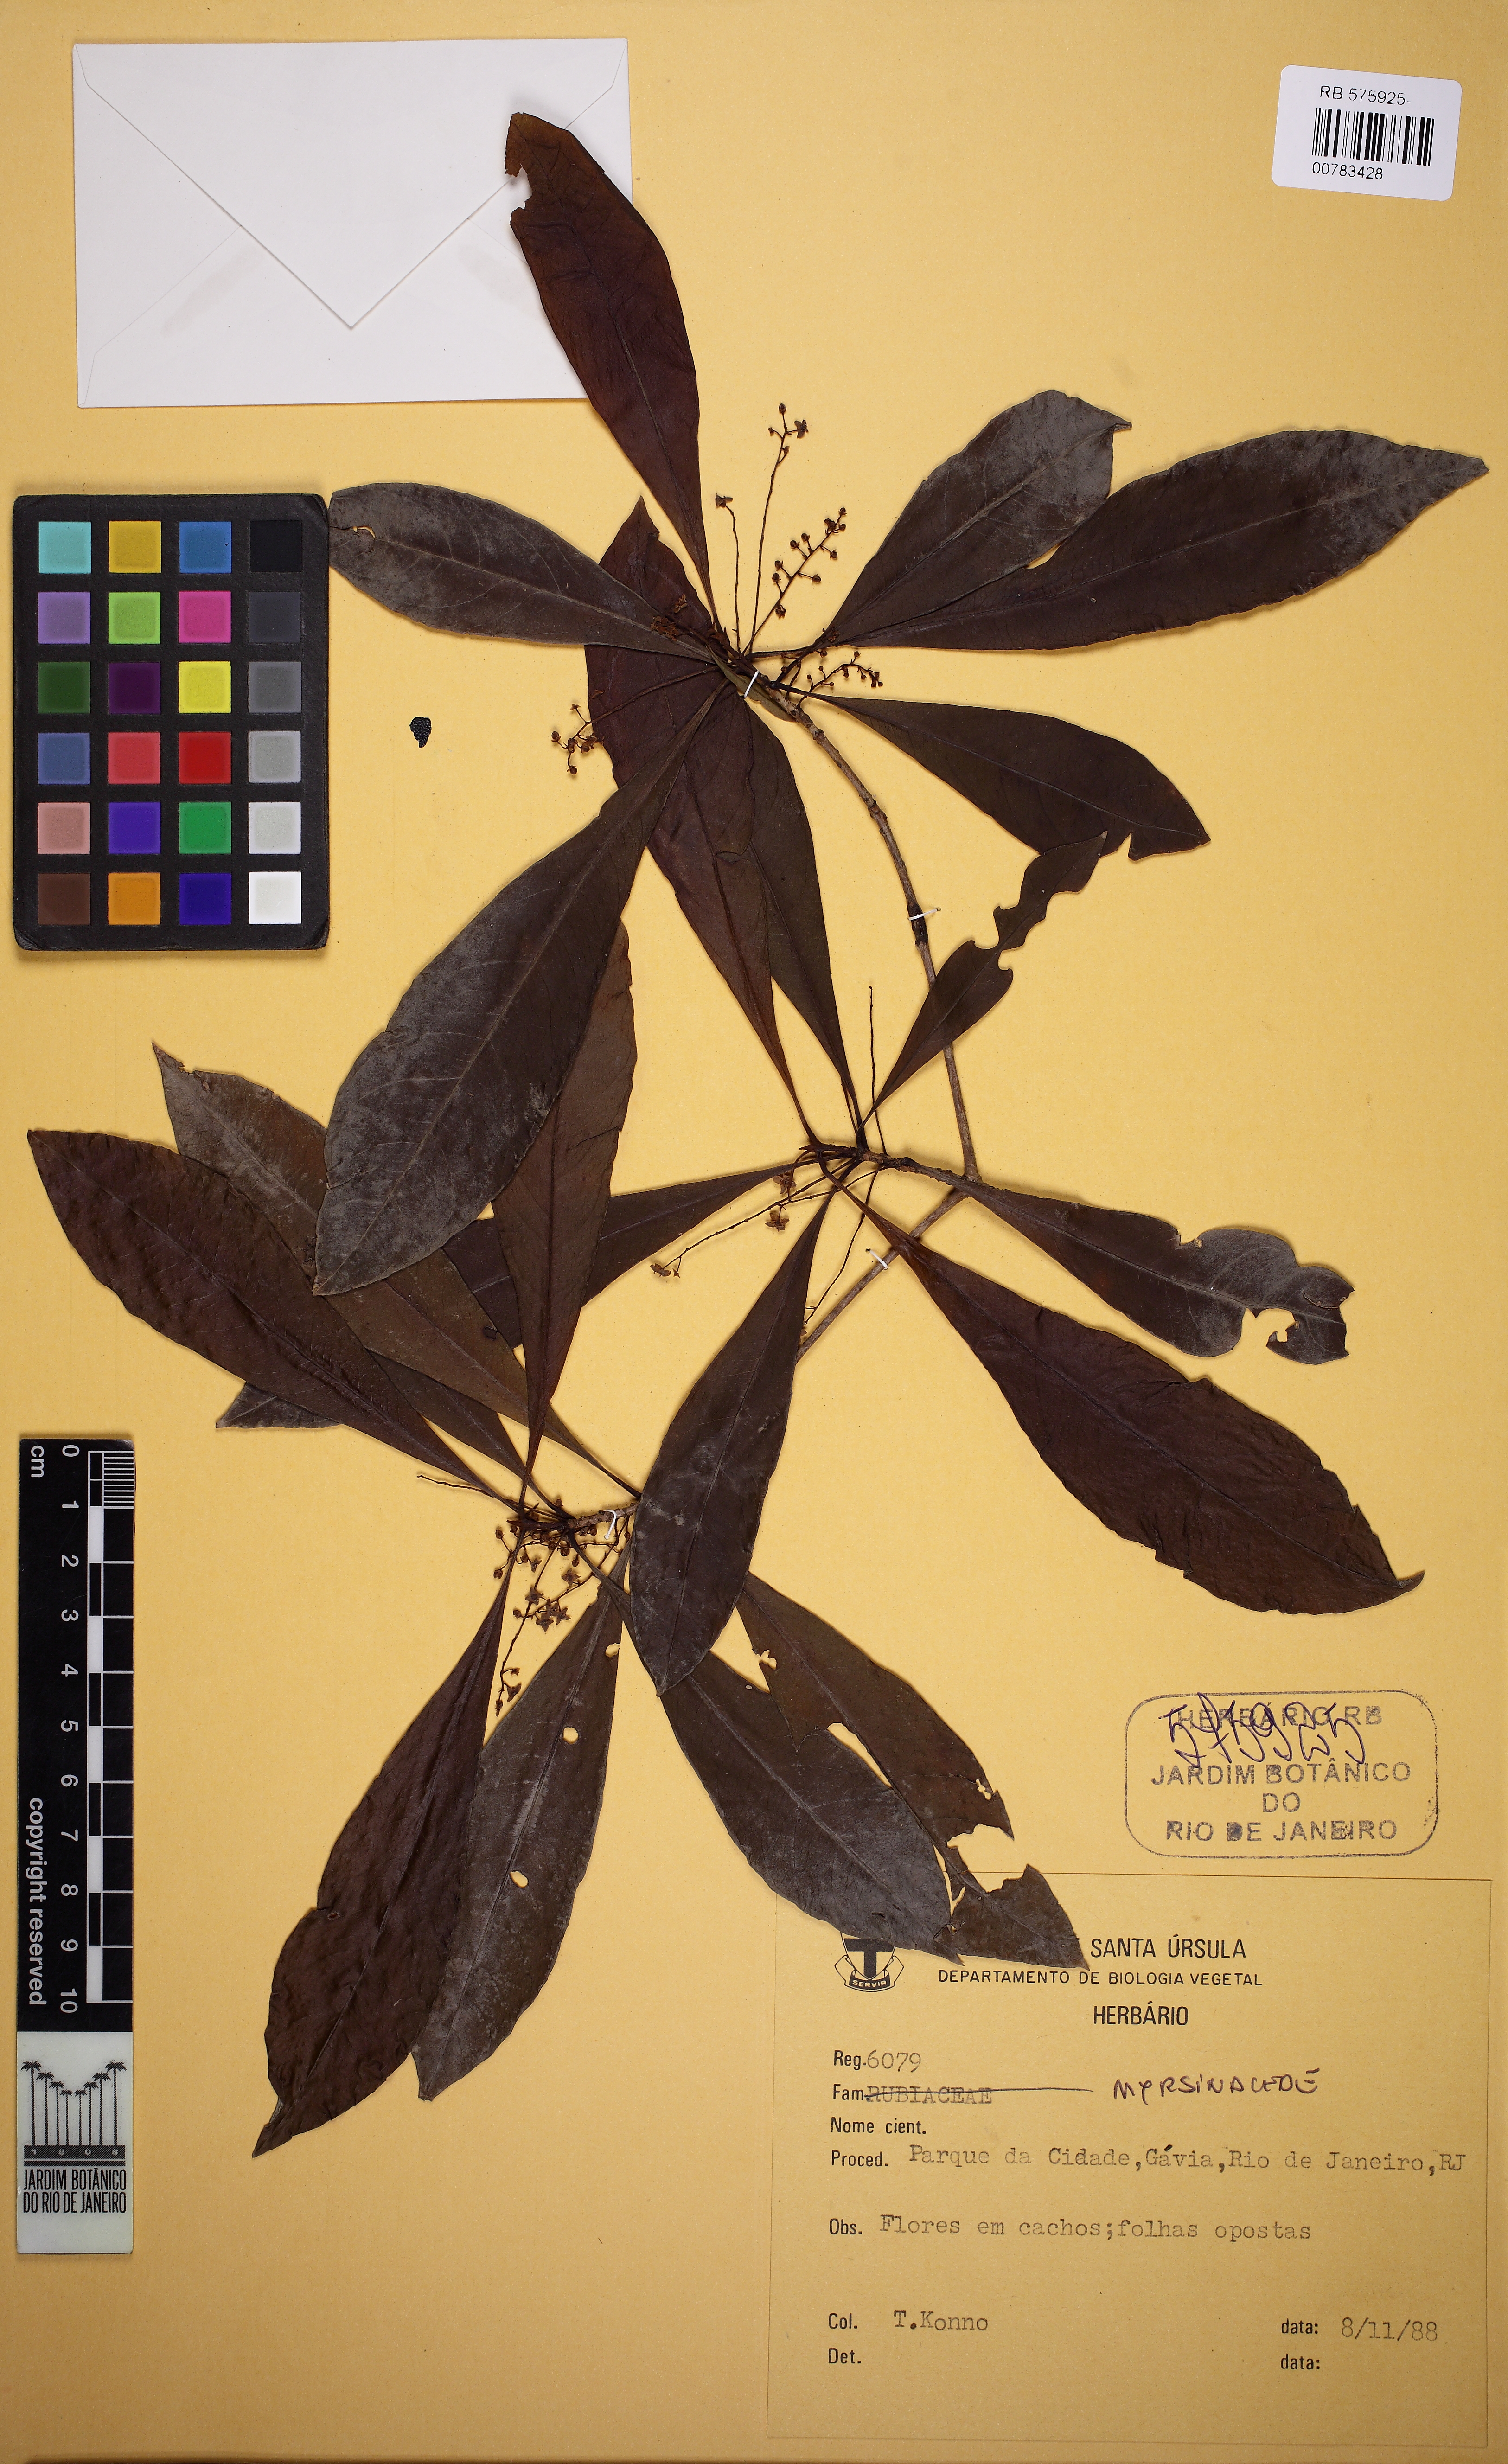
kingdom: Plantae
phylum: Tracheophyta
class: Magnoliopsida
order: Ericales
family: Primulaceae
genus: Cybianthus
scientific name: Cybianthus pastensis
